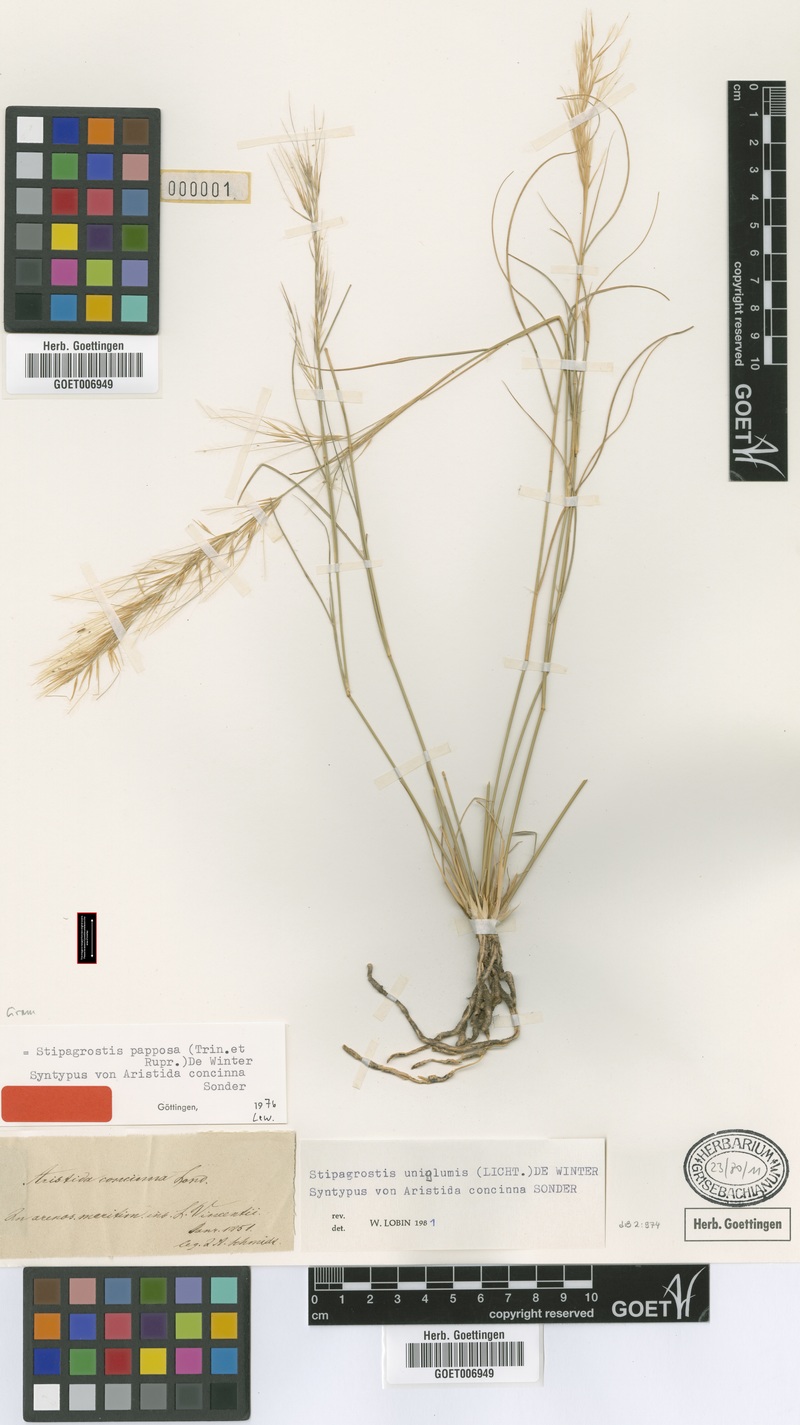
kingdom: Plantae
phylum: Tracheophyta
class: Liliopsida
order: Poales
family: Poaceae
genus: Stipagrostis
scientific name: Stipagrostis uniplumis
